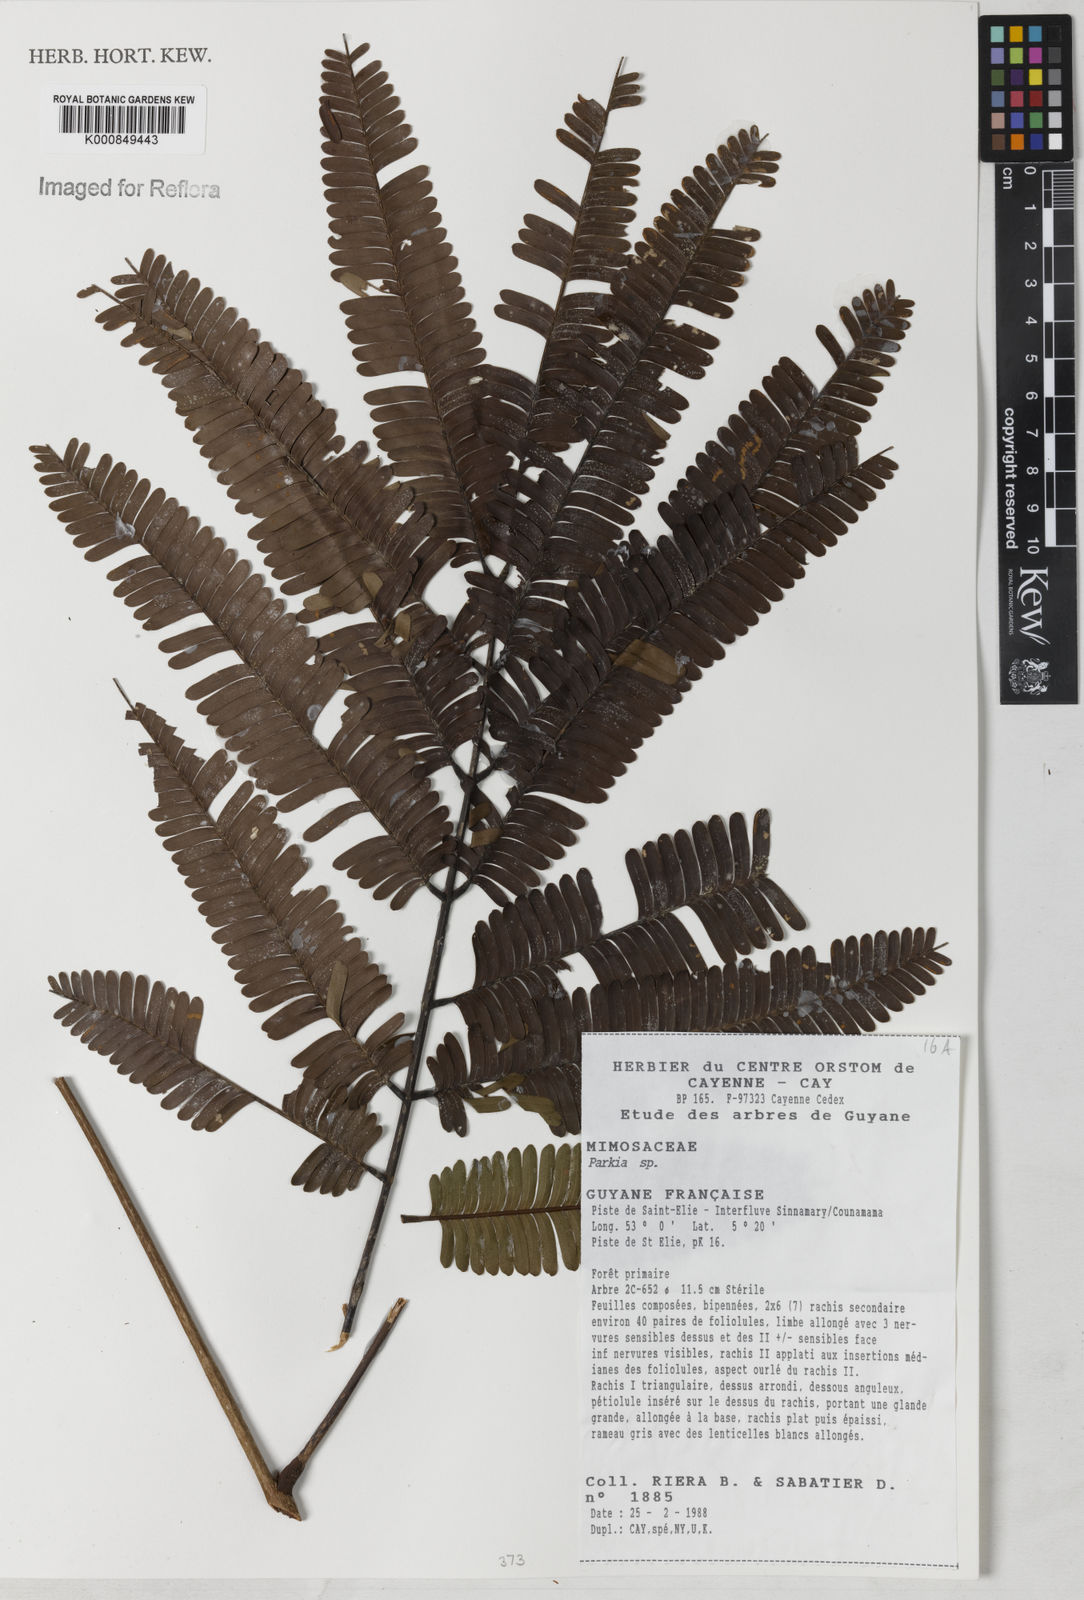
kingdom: Plantae
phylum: Tracheophyta
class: Magnoliopsida
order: Fabales
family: Fabaceae
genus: Parkia
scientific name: Parkia
